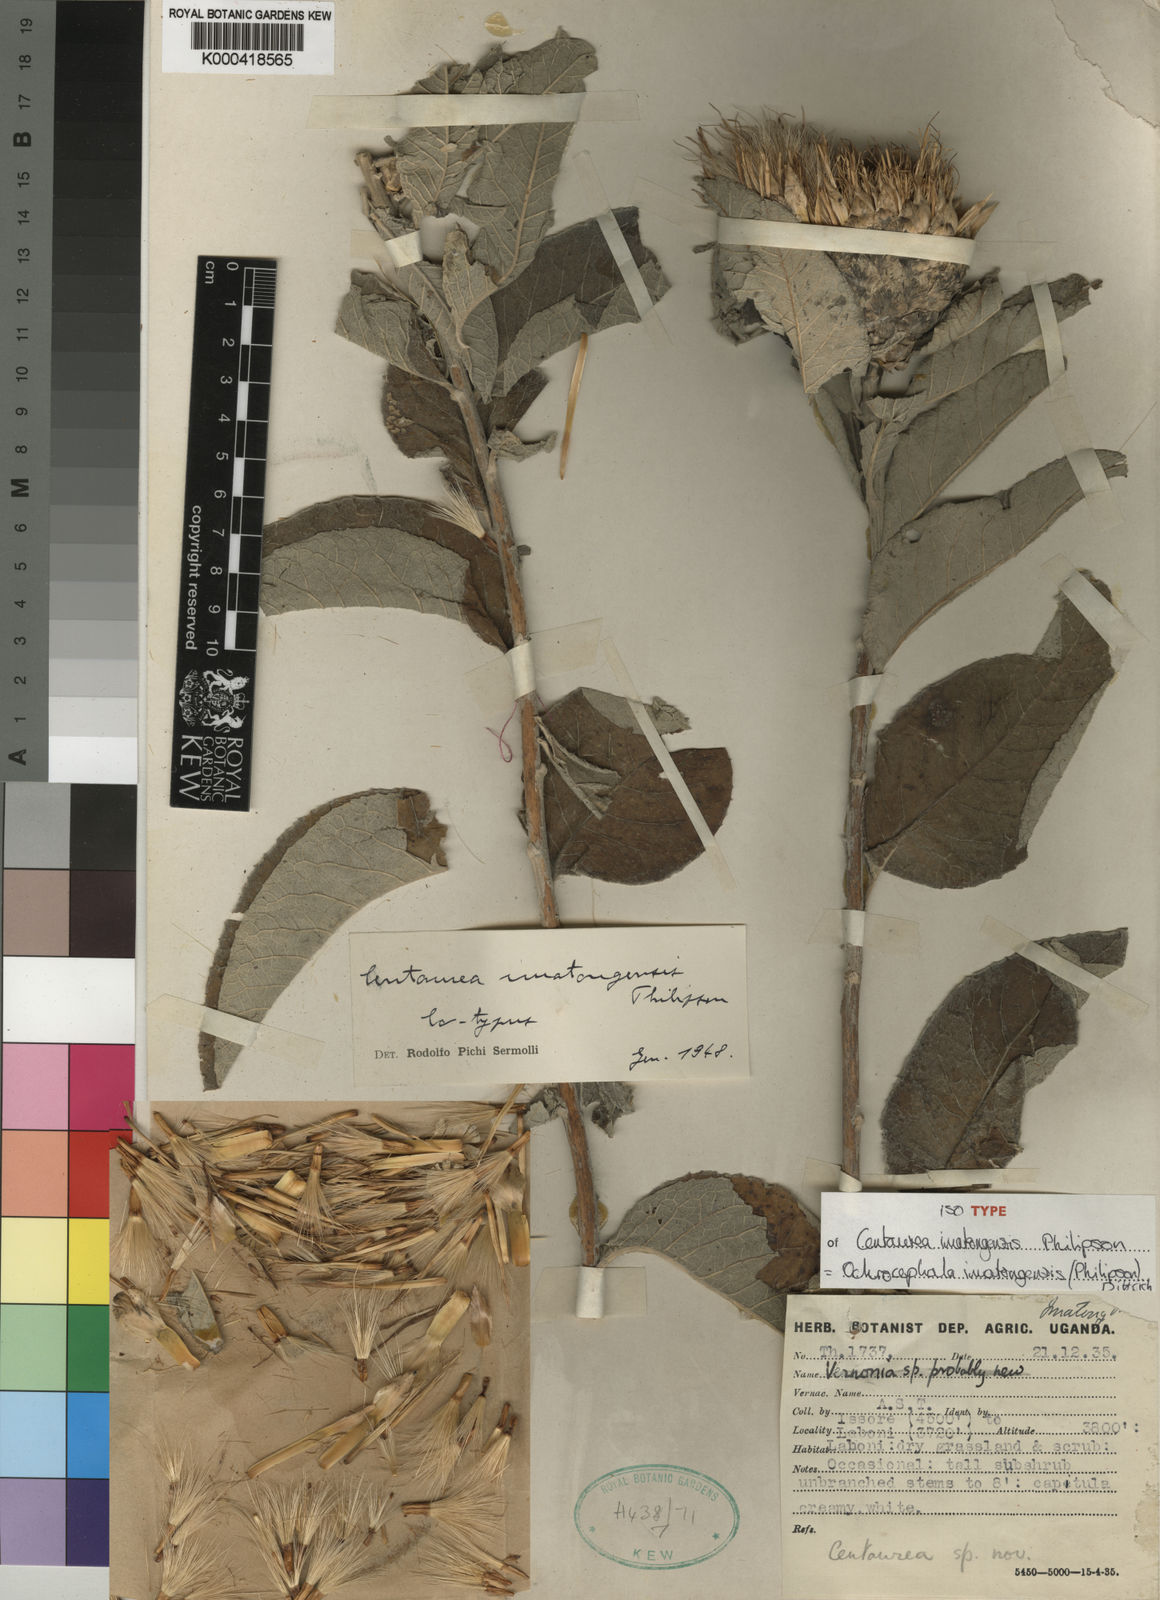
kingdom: Plantae
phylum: Tracheophyta
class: Magnoliopsida
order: Asterales
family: Asteraceae
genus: Ochrocephala
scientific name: Ochrocephala imatongensis
